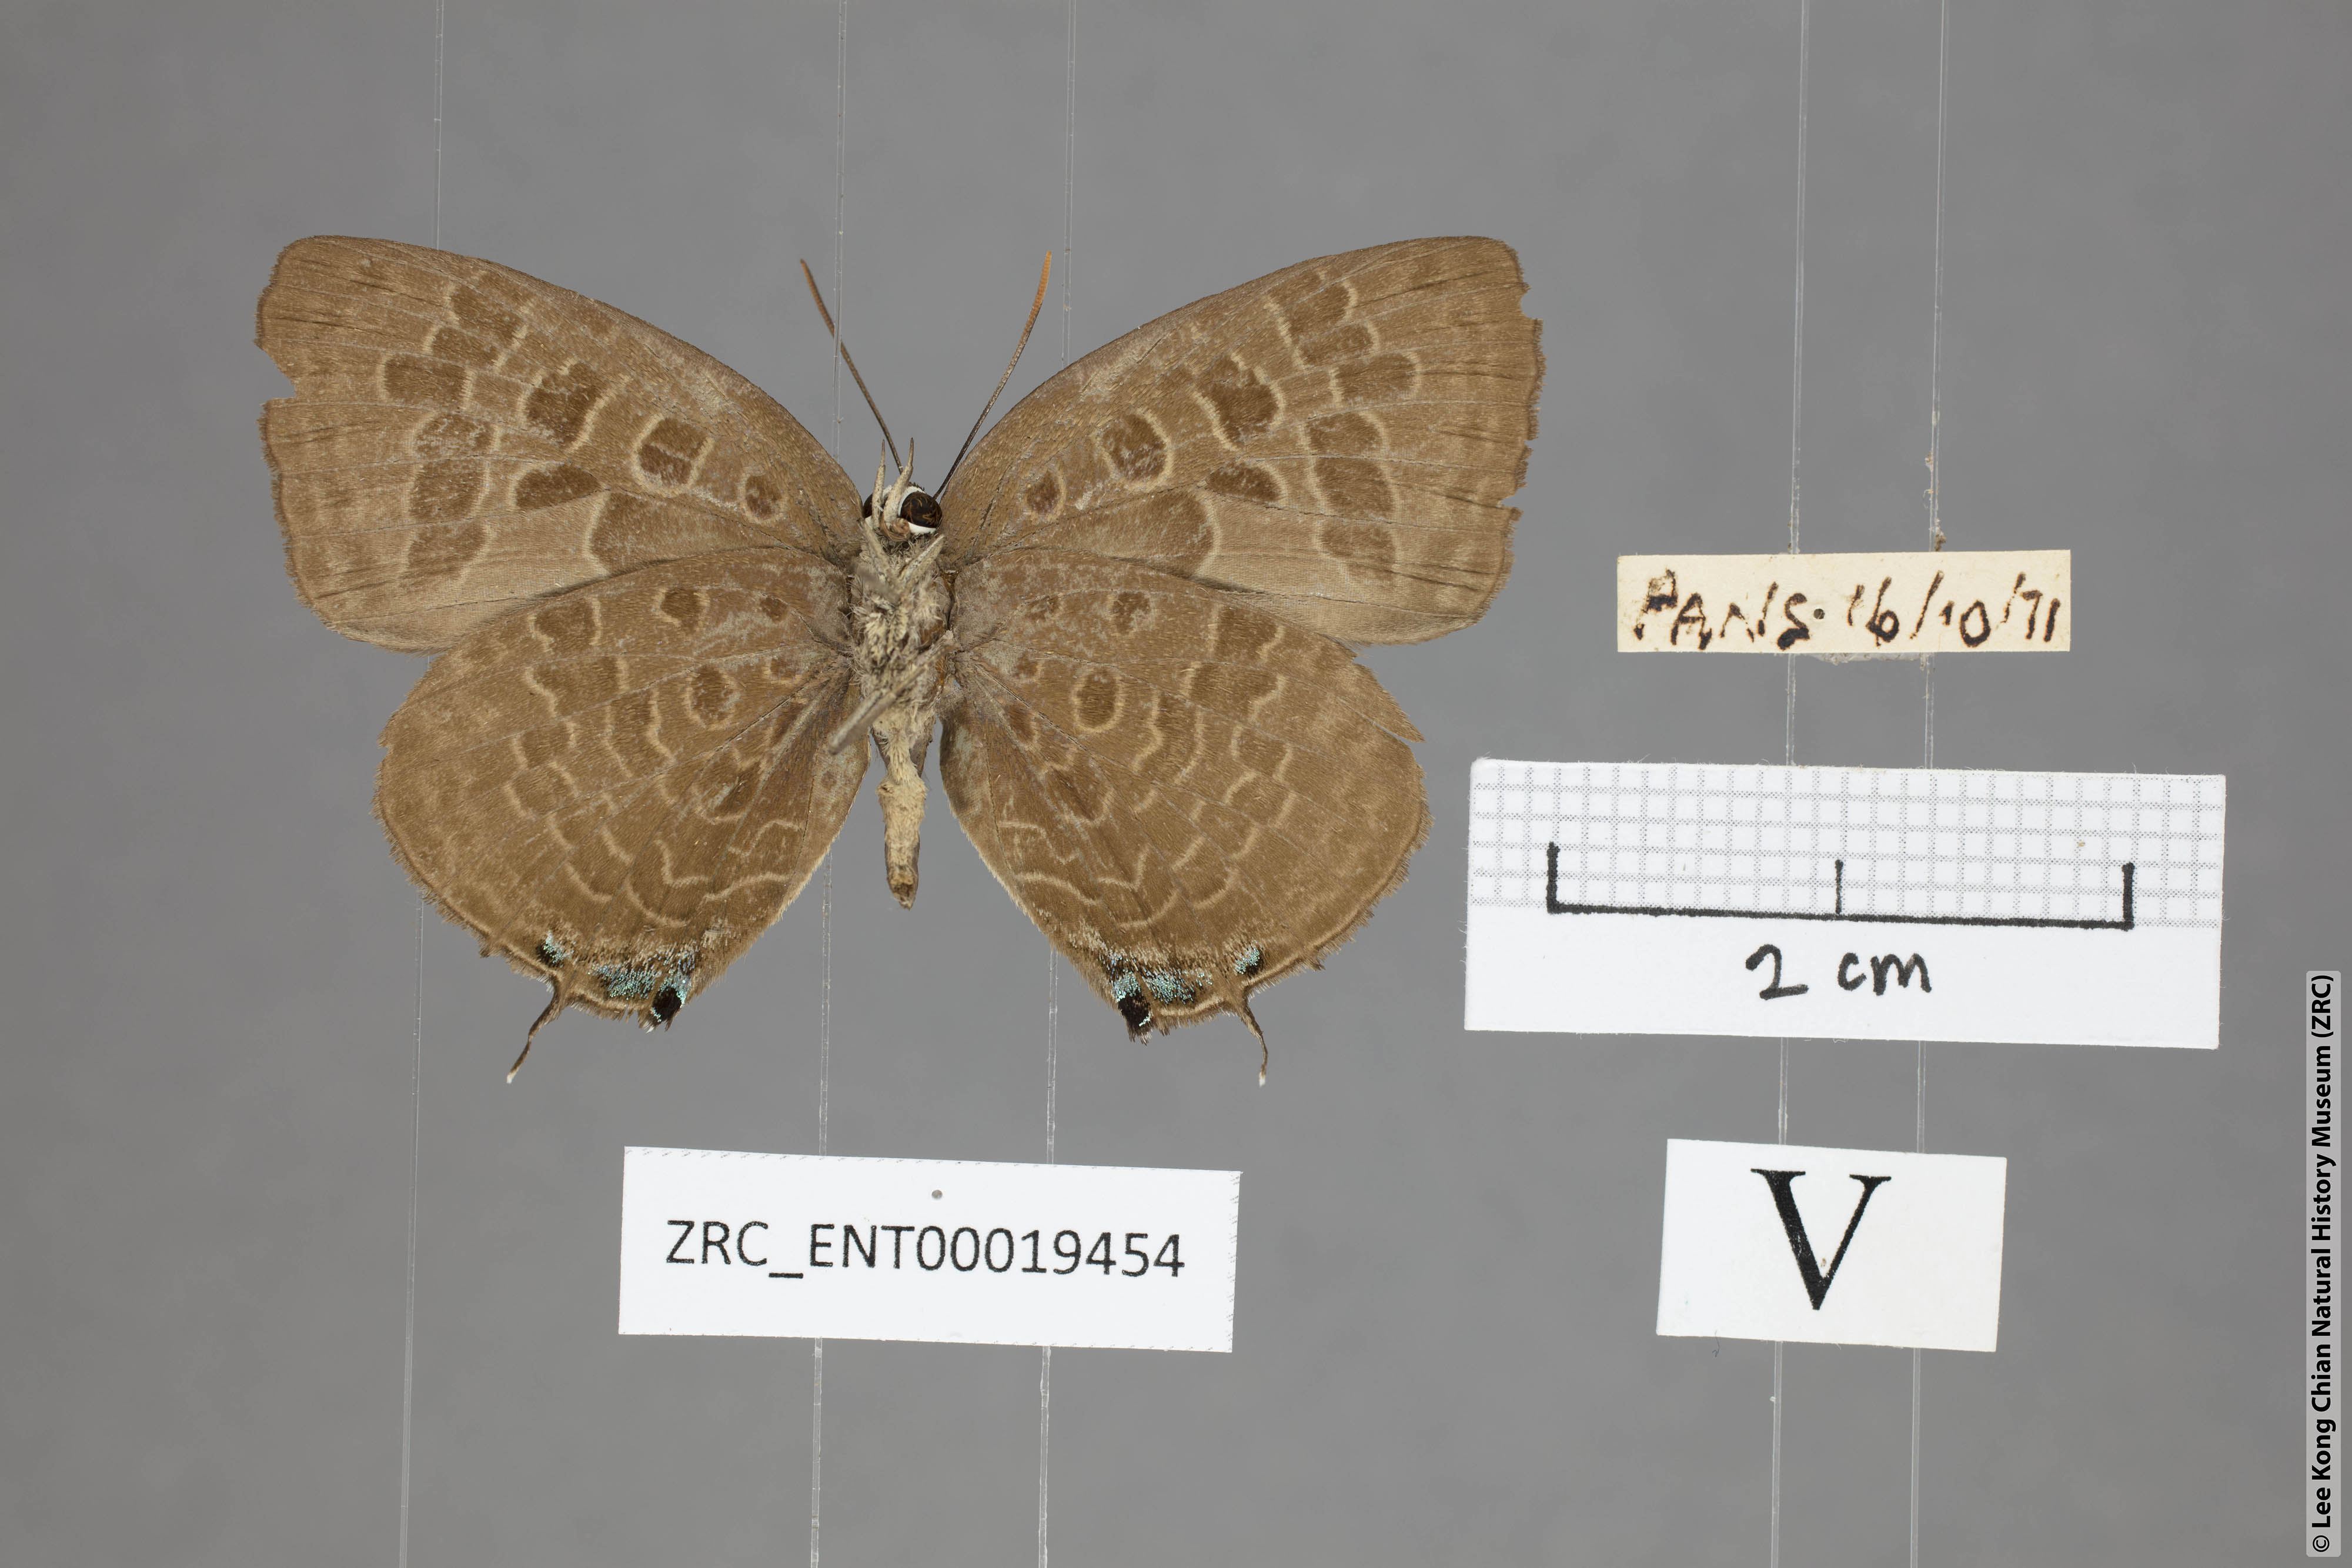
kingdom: Animalia
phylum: Arthropoda
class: Insecta
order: Lepidoptera
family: Lycaenidae
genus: Arhopala
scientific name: Arhopala eumolphus
